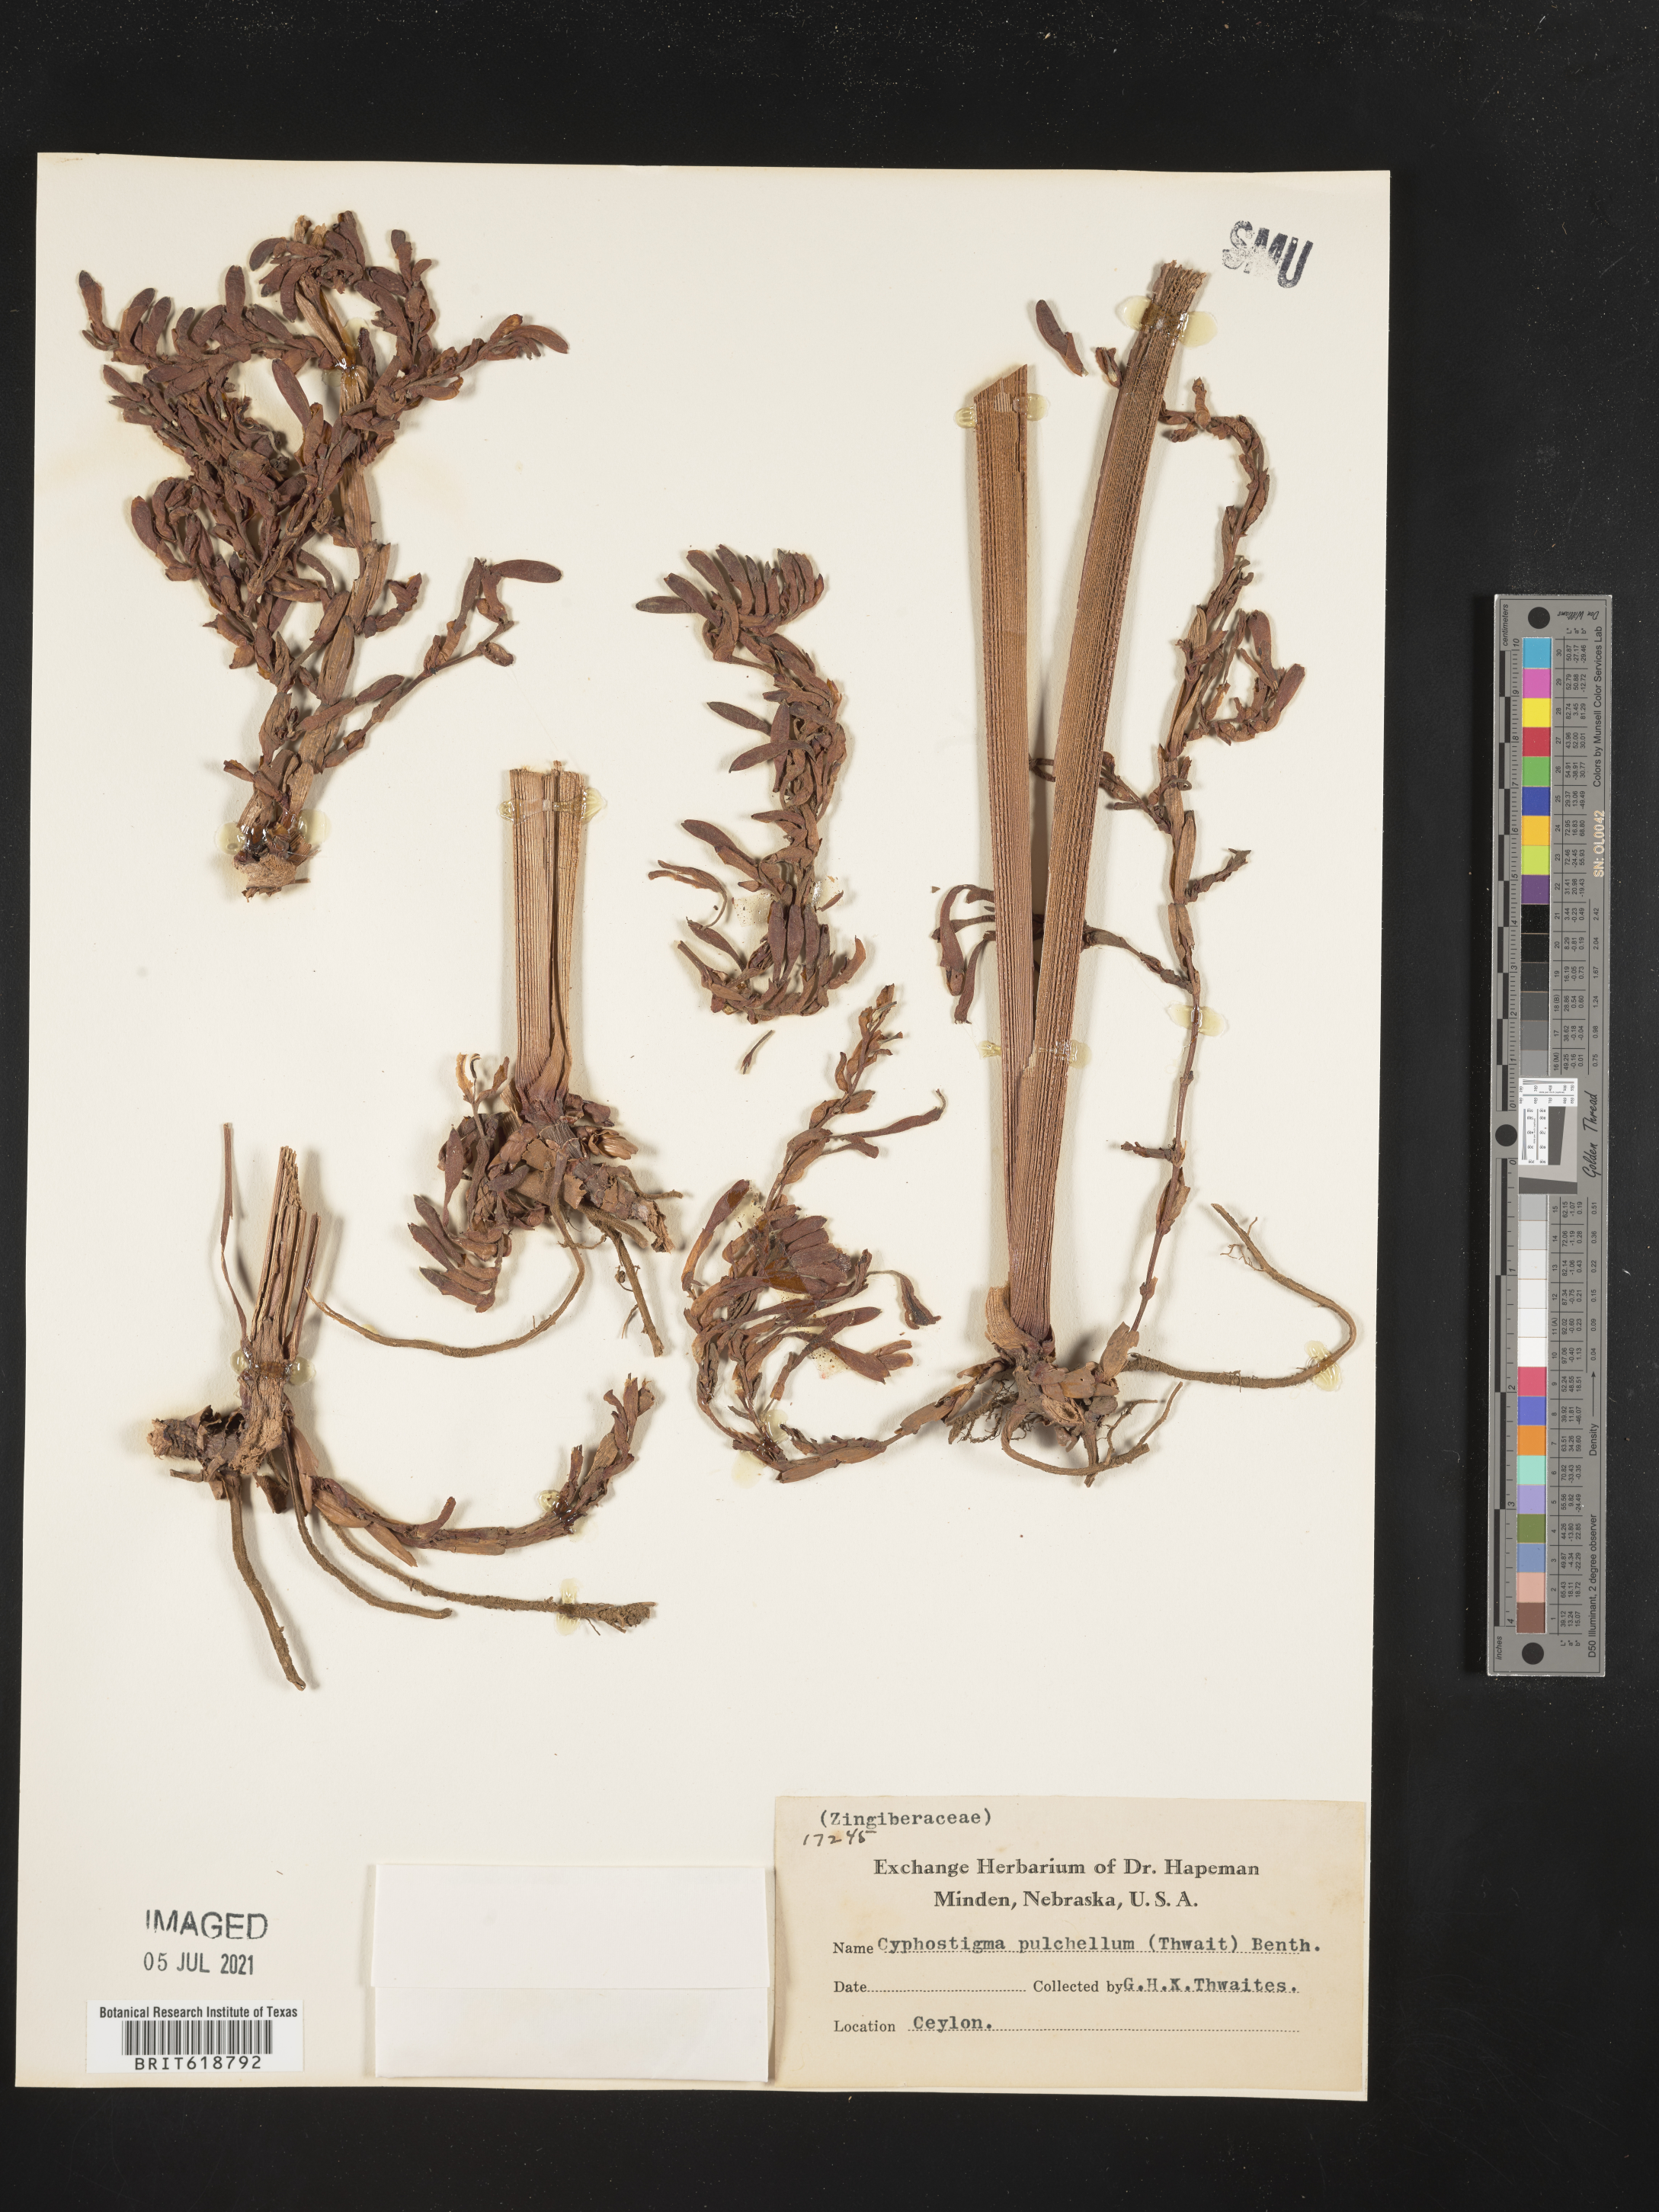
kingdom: Plantae
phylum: Tracheophyta
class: Liliopsida
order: Zingiberales
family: Zingiberaceae
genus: Cyphostigma
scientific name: Cyphostigma pulchellum
